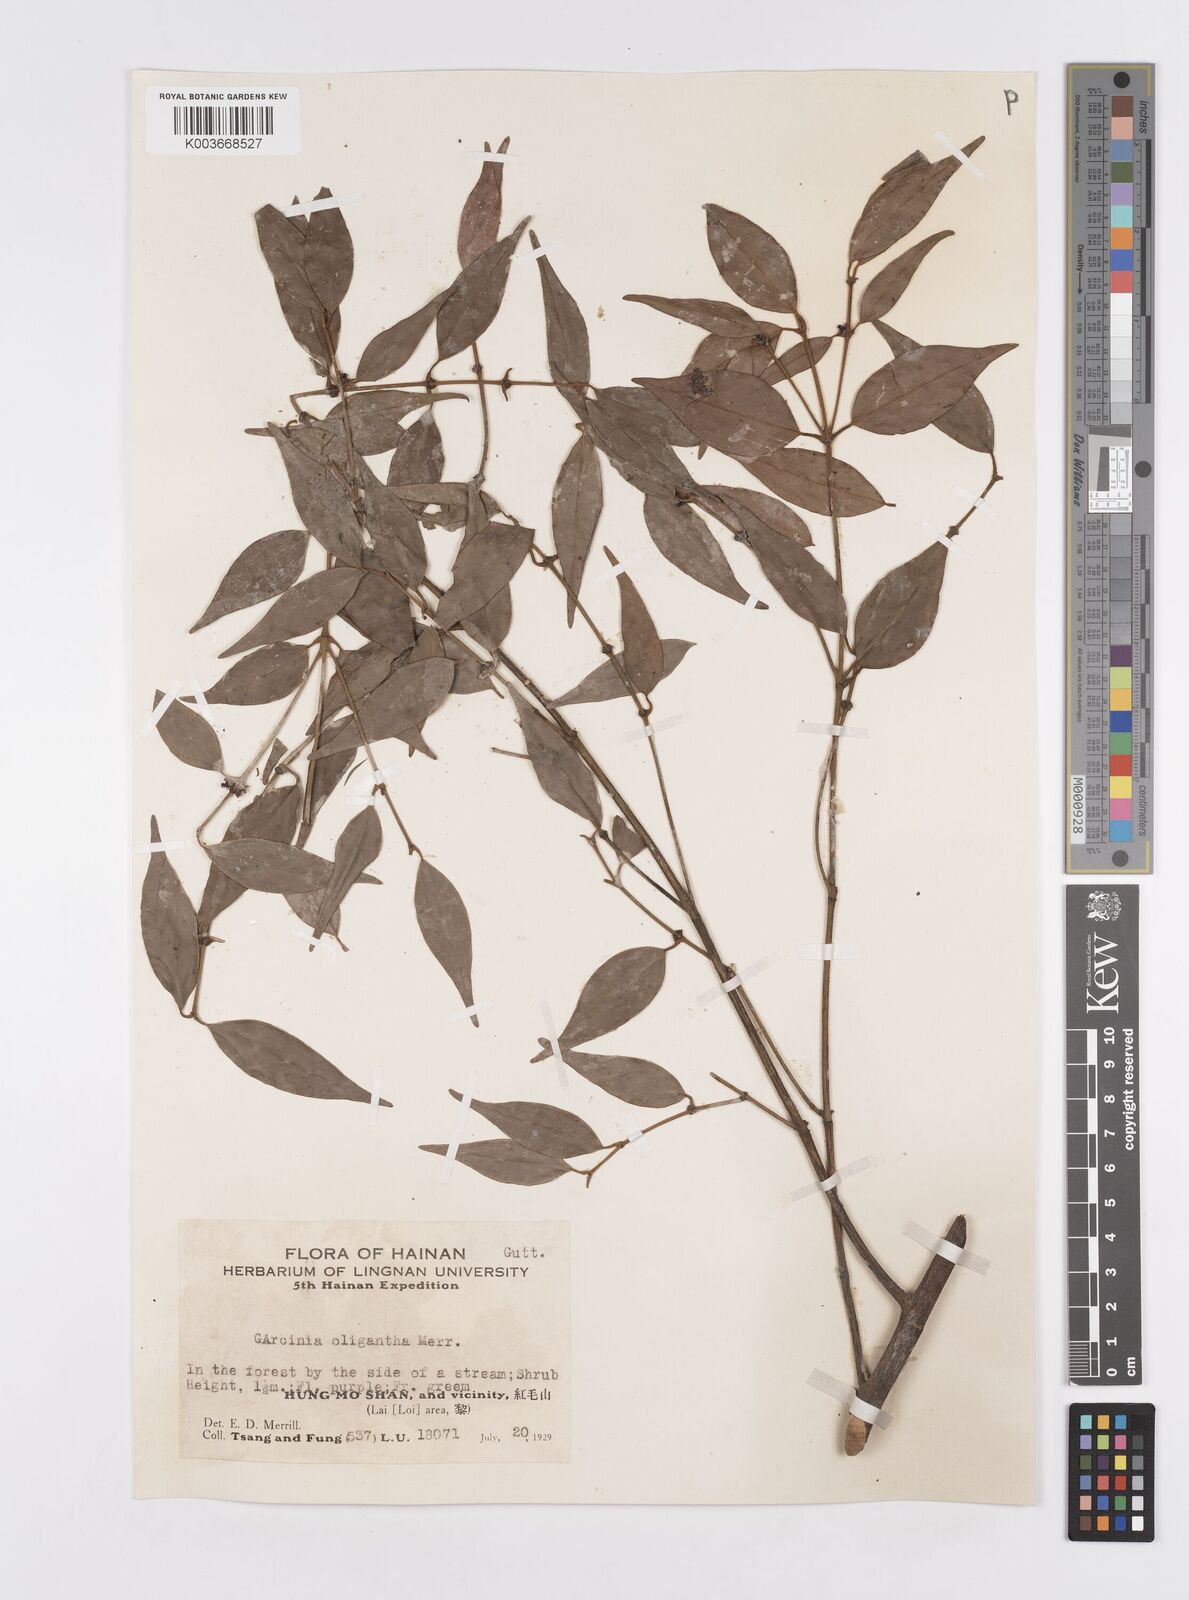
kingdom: Plantae
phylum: Tracheophyta
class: Magnoliopsida
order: Malpighiales
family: Clusiaceae
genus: Garcinia
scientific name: Garcinia oligantha
